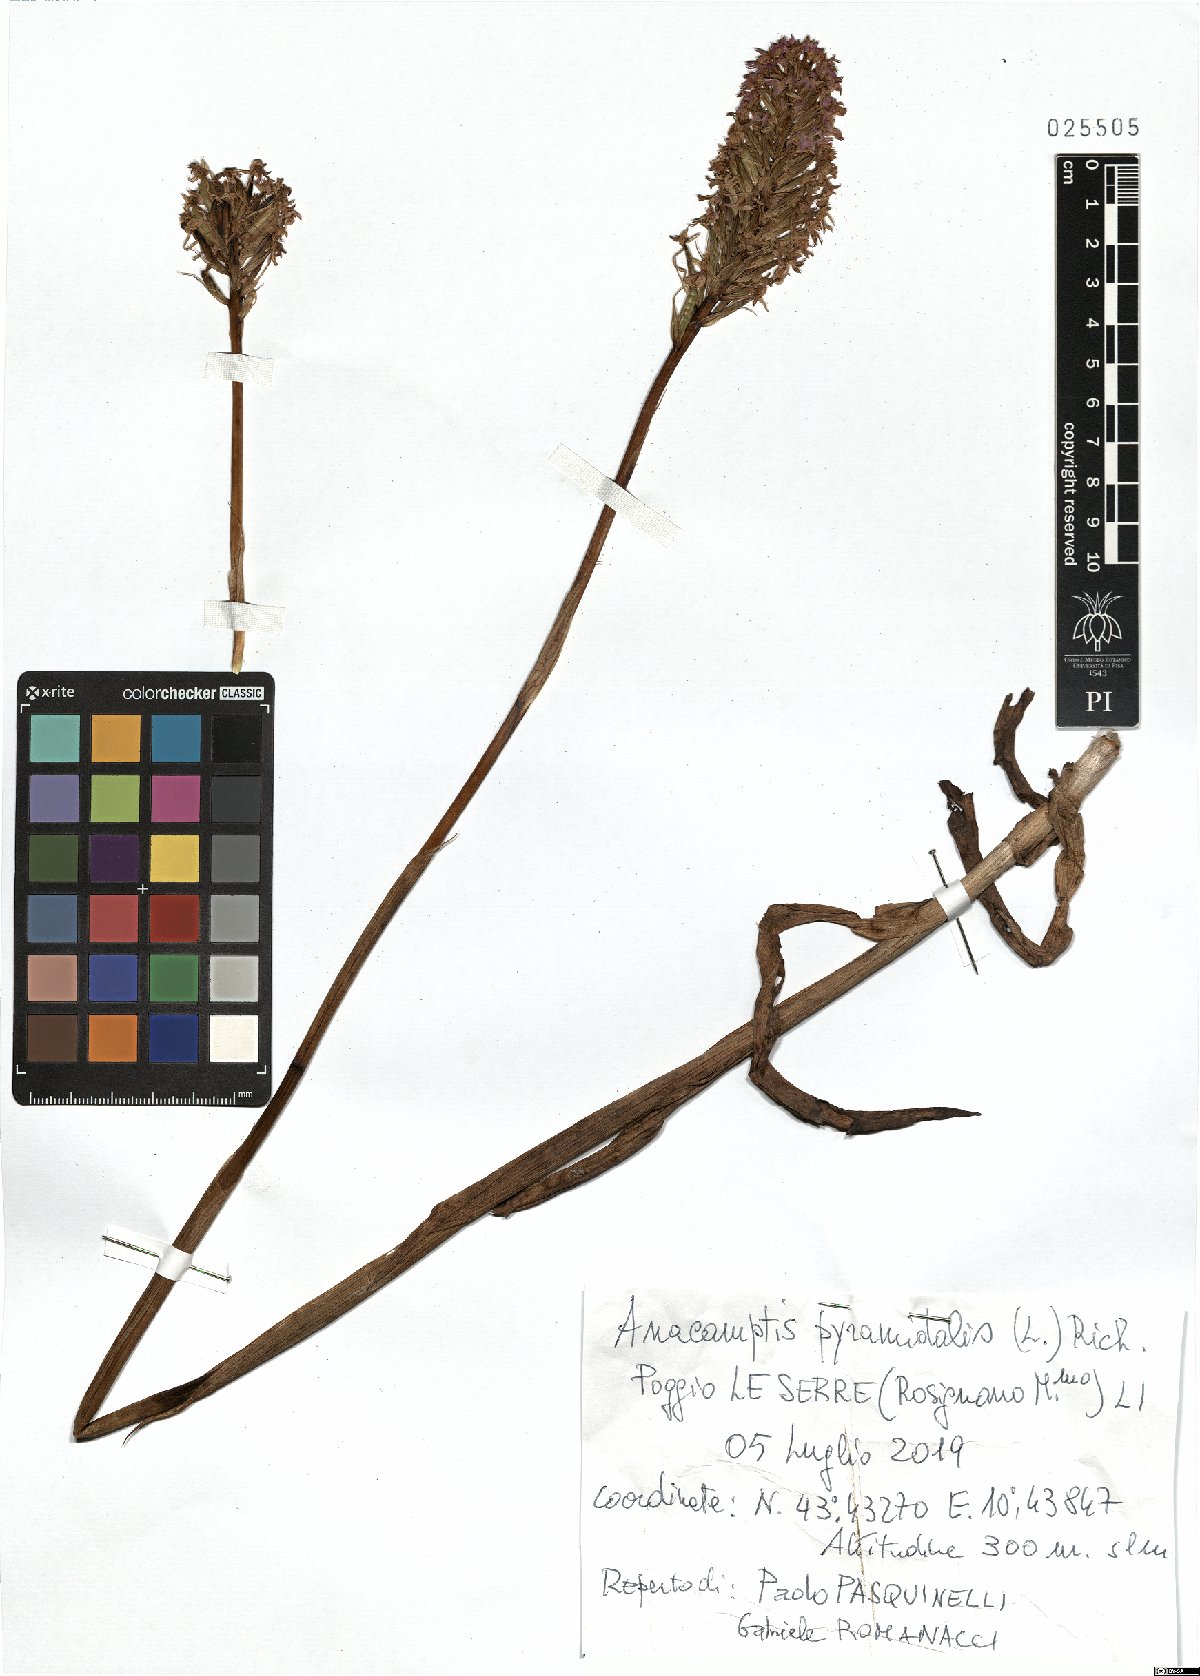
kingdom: Plantae
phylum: Tracheophyta
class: Liliopsida
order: Asparagales
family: Orchidaceae
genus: Anacamptis
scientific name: Anacamptis pyramidalis
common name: Pyramidal orchid
